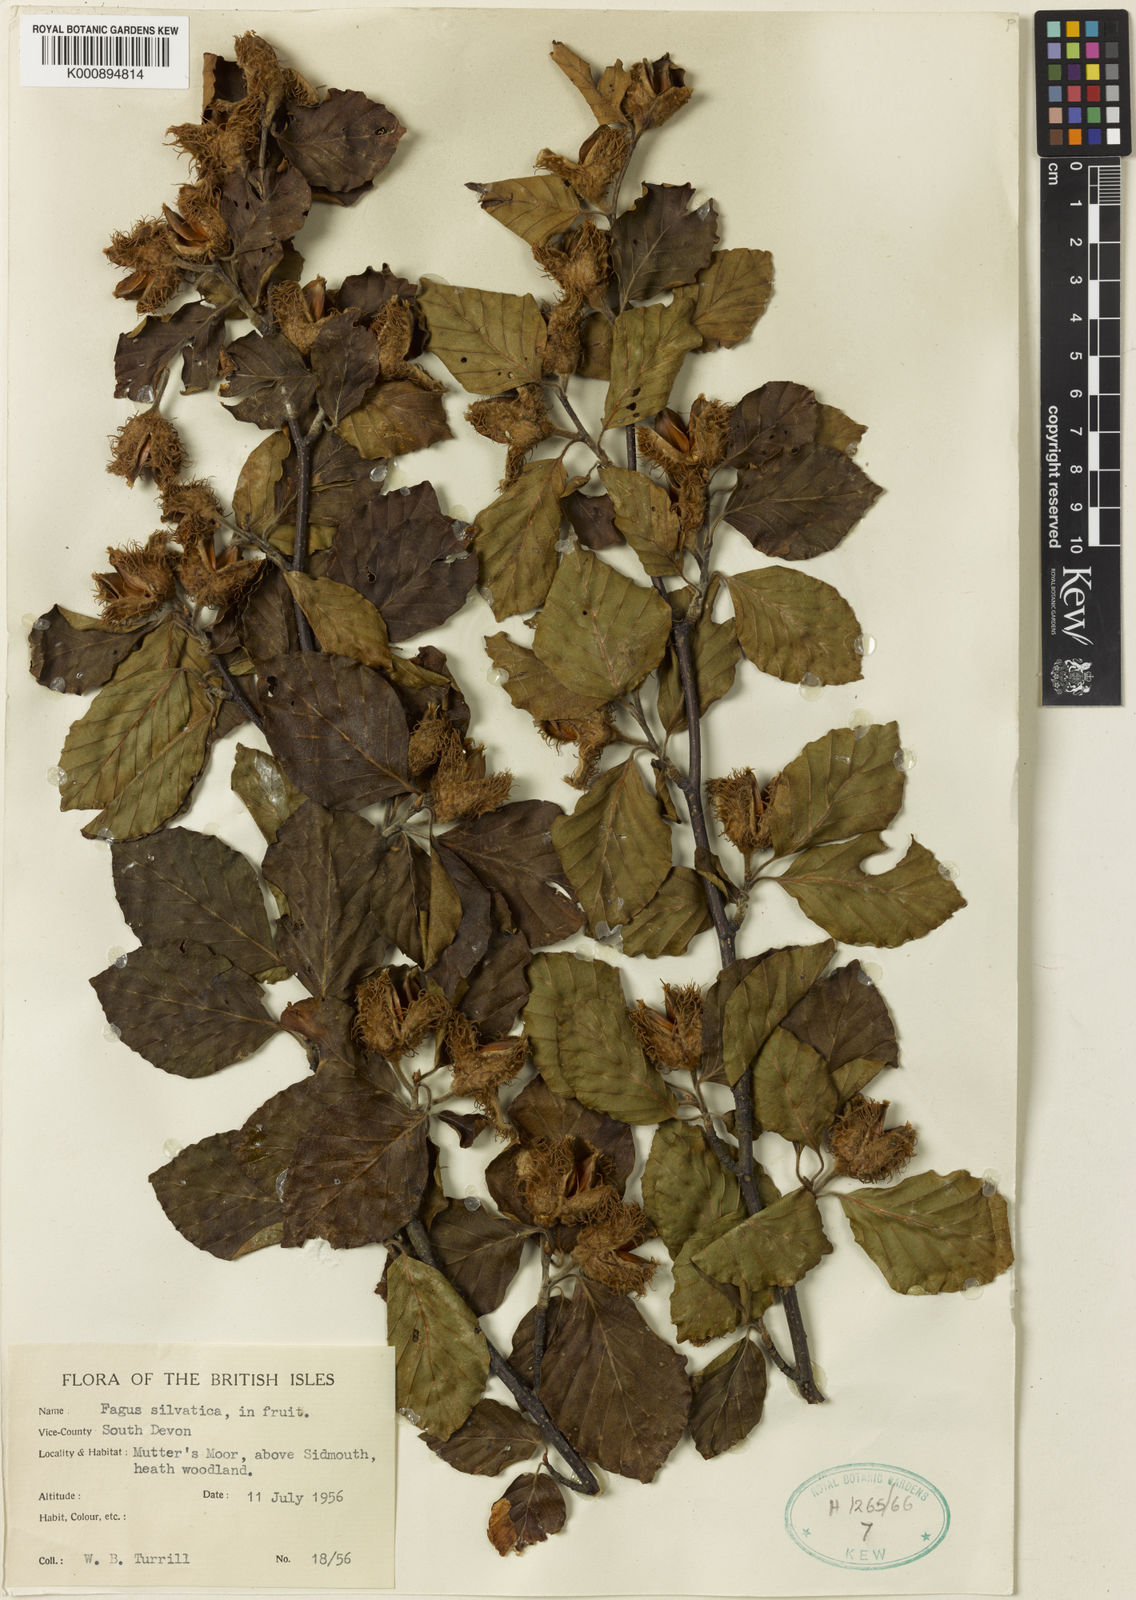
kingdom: Plantae
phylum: Tracheophyta
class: Magnoliopsida
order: Fagales
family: Fagaceae
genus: Fagus
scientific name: Fagus sylvatica
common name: Beech
